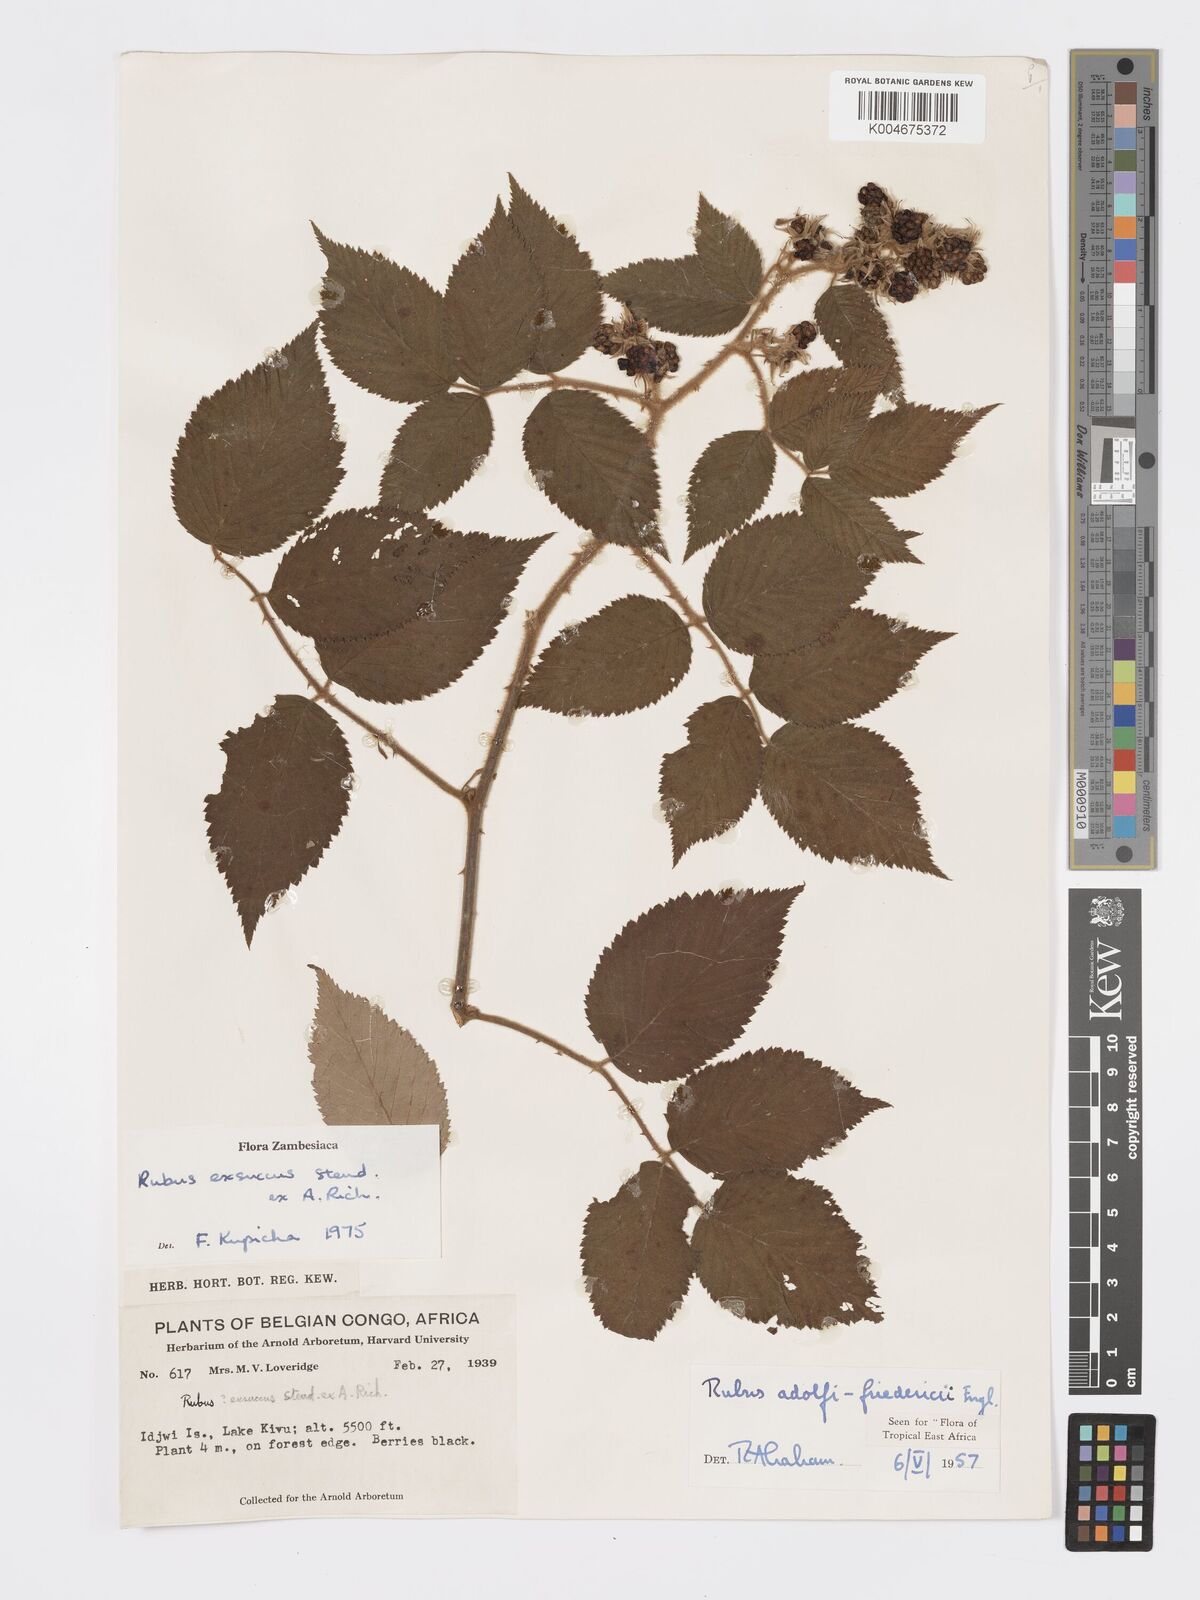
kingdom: Plantae
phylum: Tracheophyta
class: Magnoliopsida
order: Rosales
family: Rosaceae
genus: Rubus
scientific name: Rubus apetalus
